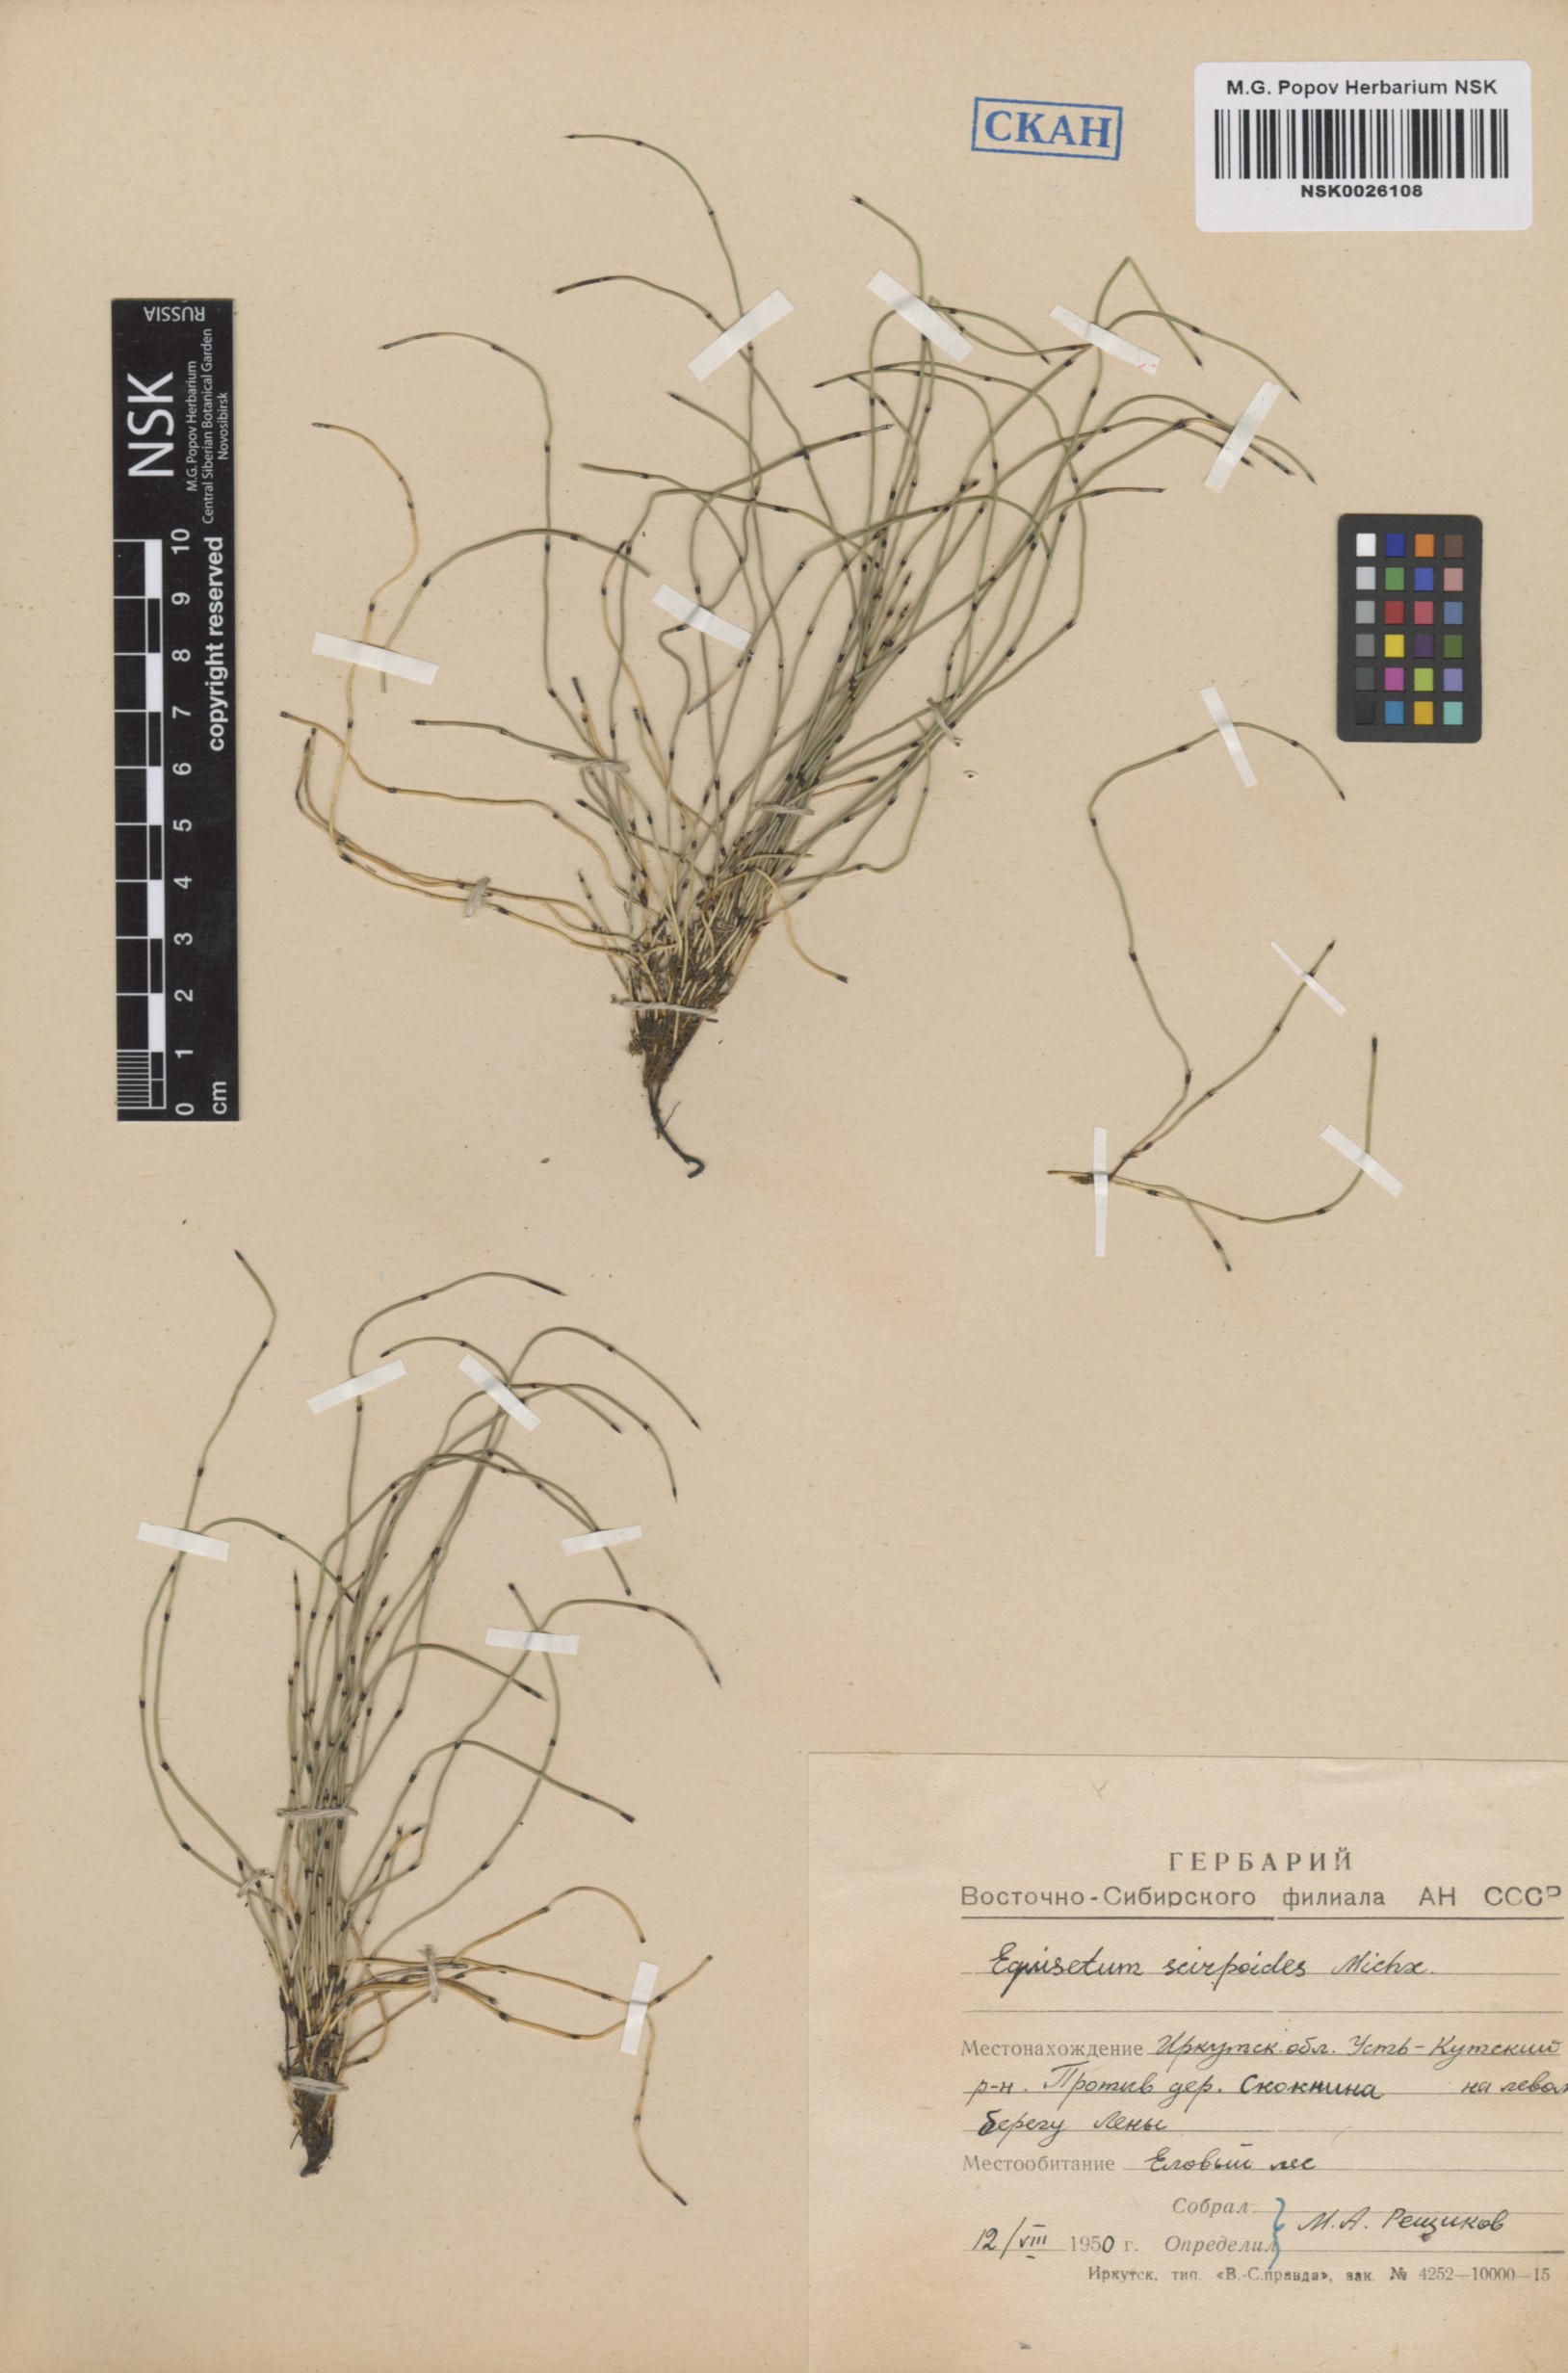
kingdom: Plantae
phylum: Tracheophyta
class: Polypodiopsida
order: Equisetales
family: Equisetaceae
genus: Equisetum
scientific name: Equisetum scirpoides
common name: Delicate horsetail
